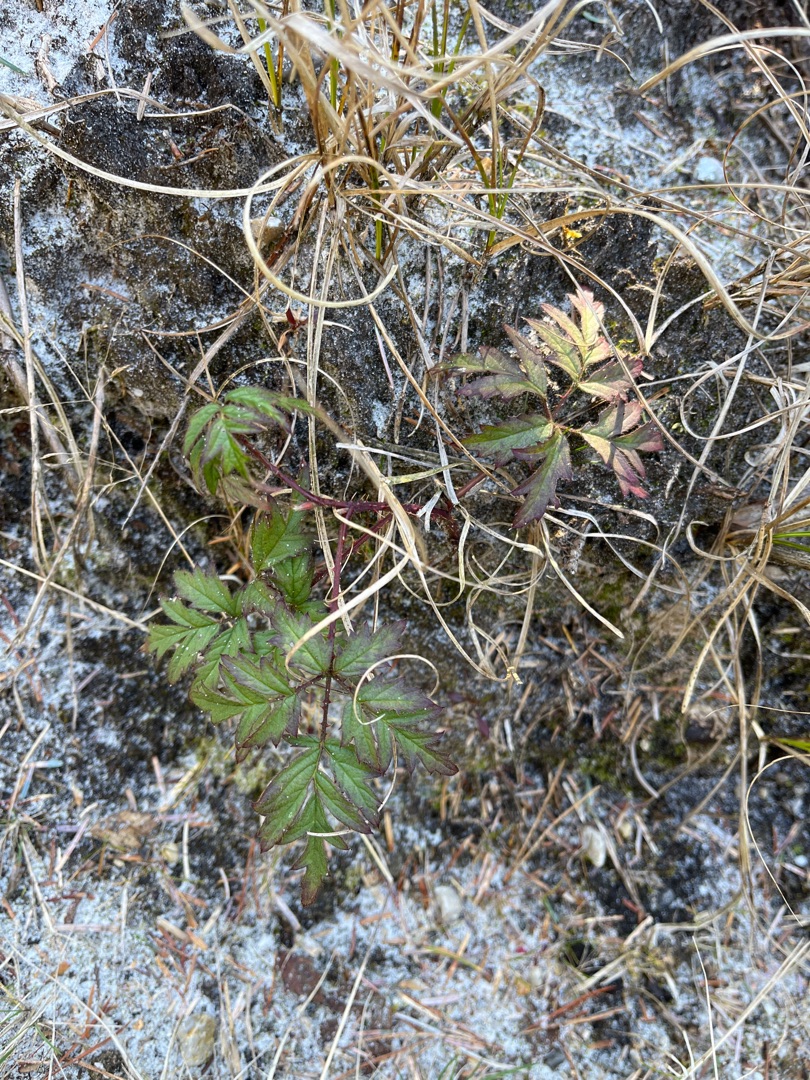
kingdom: Plantae
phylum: Tracheophyta
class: Magnoliopsida
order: Rosales
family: Rosaceae
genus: Rubus
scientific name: Rubus laciniatus
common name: Fliget brombær
